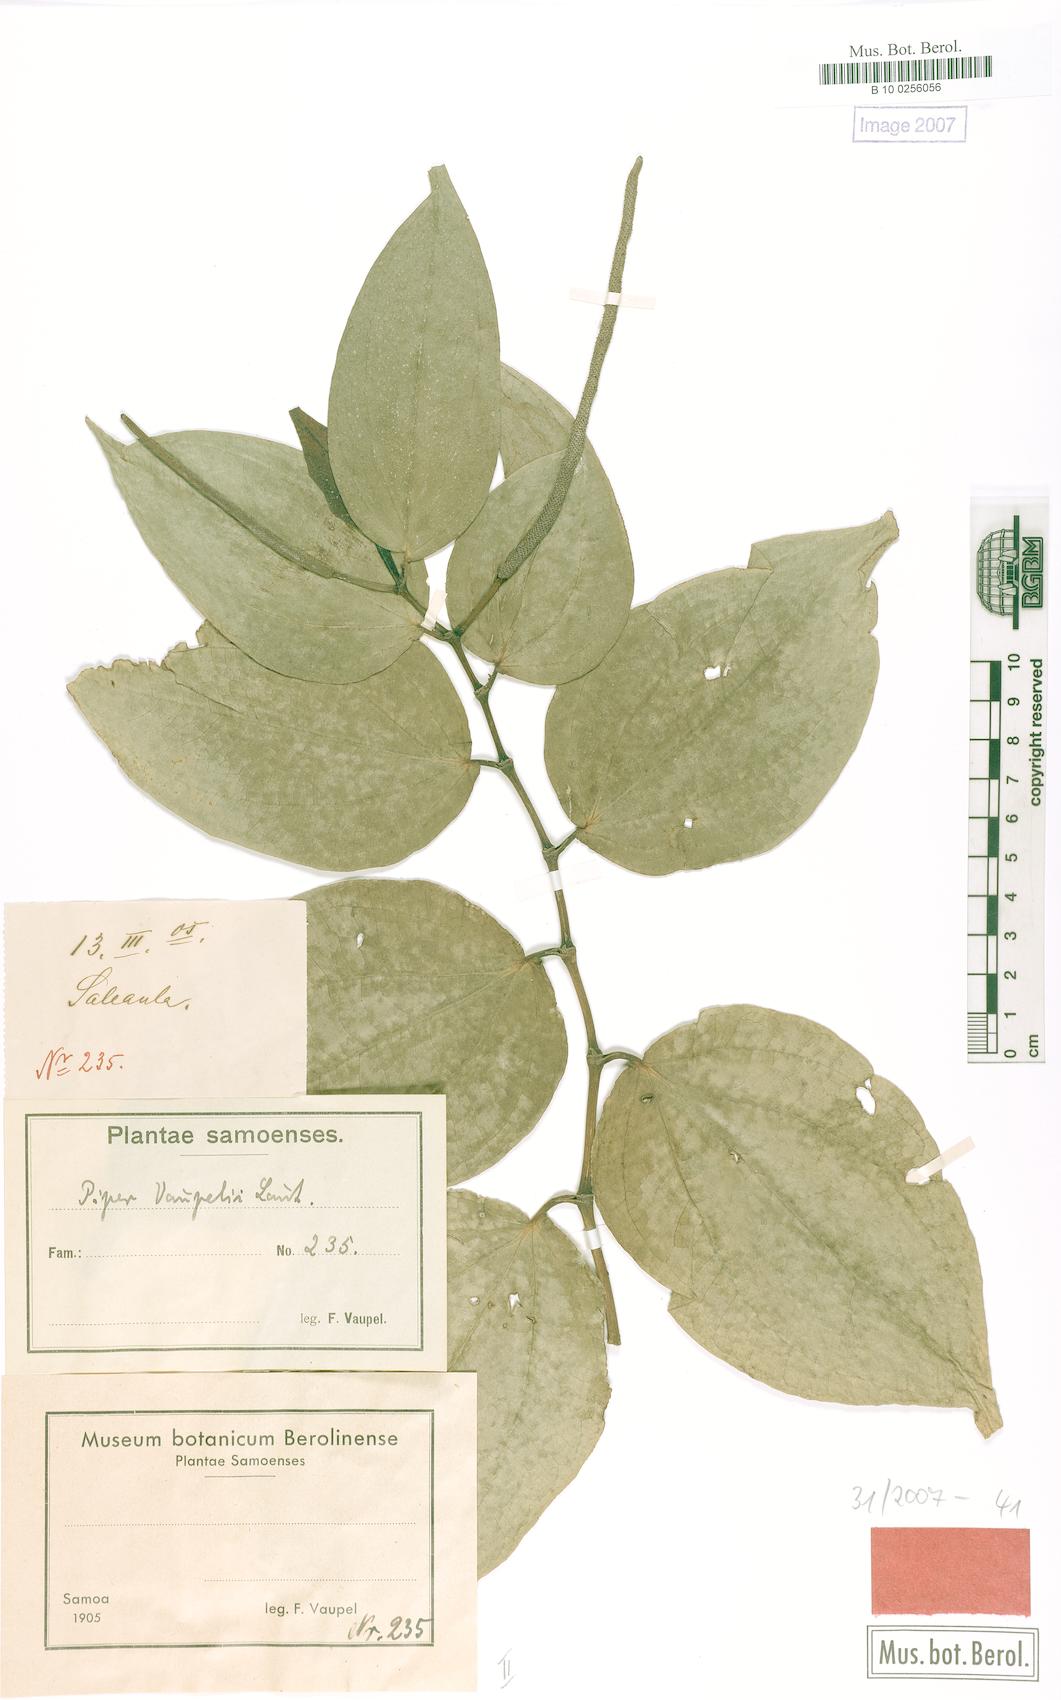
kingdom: Plantae
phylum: Tracheophyta
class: Magnoliopsida
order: Piperales
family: Piperaceae
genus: Piper
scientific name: Piper macropiper
